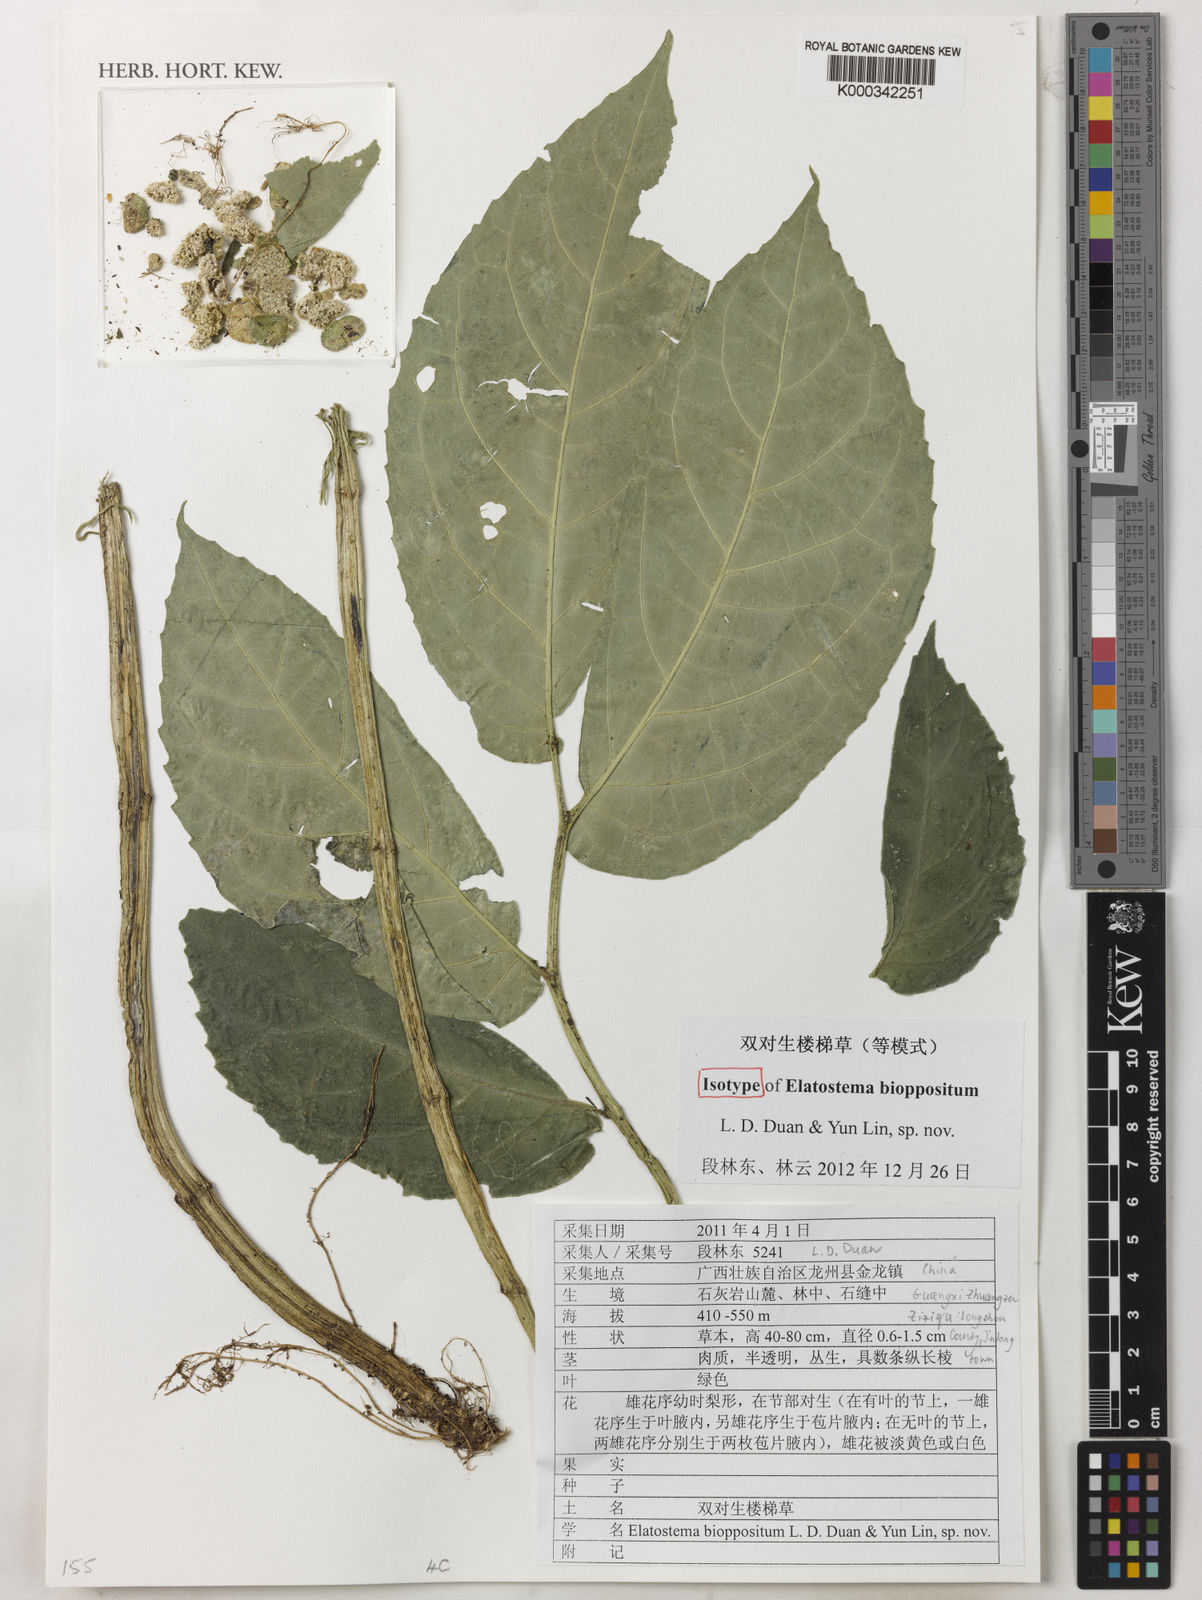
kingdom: Plantae
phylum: Tracheophyta
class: Magnoliopsida
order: Rosales
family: Urticaceae
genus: Elatostema
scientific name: Elatostema
